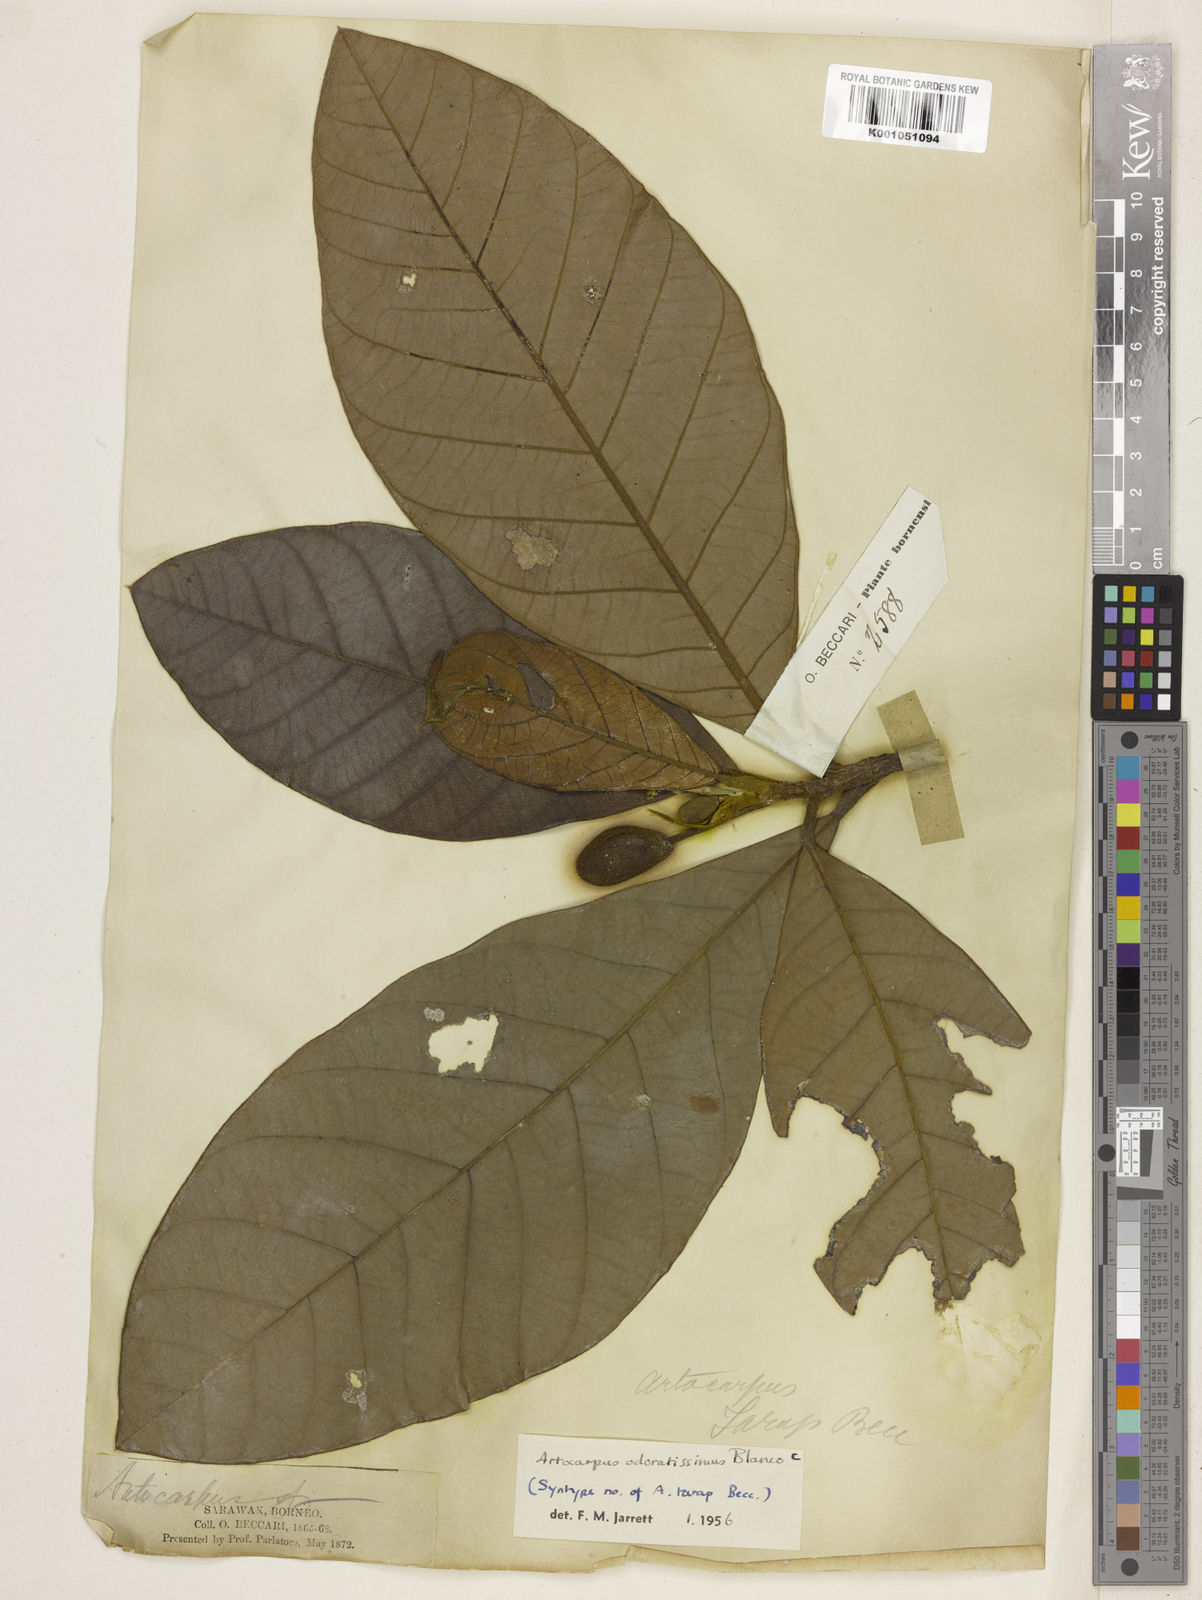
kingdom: Plantae
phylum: Tracheophyta
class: Magnoliopsida
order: Rosales
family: Moraceae
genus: Artocarpus
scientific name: Artocarpus odoratissimus
